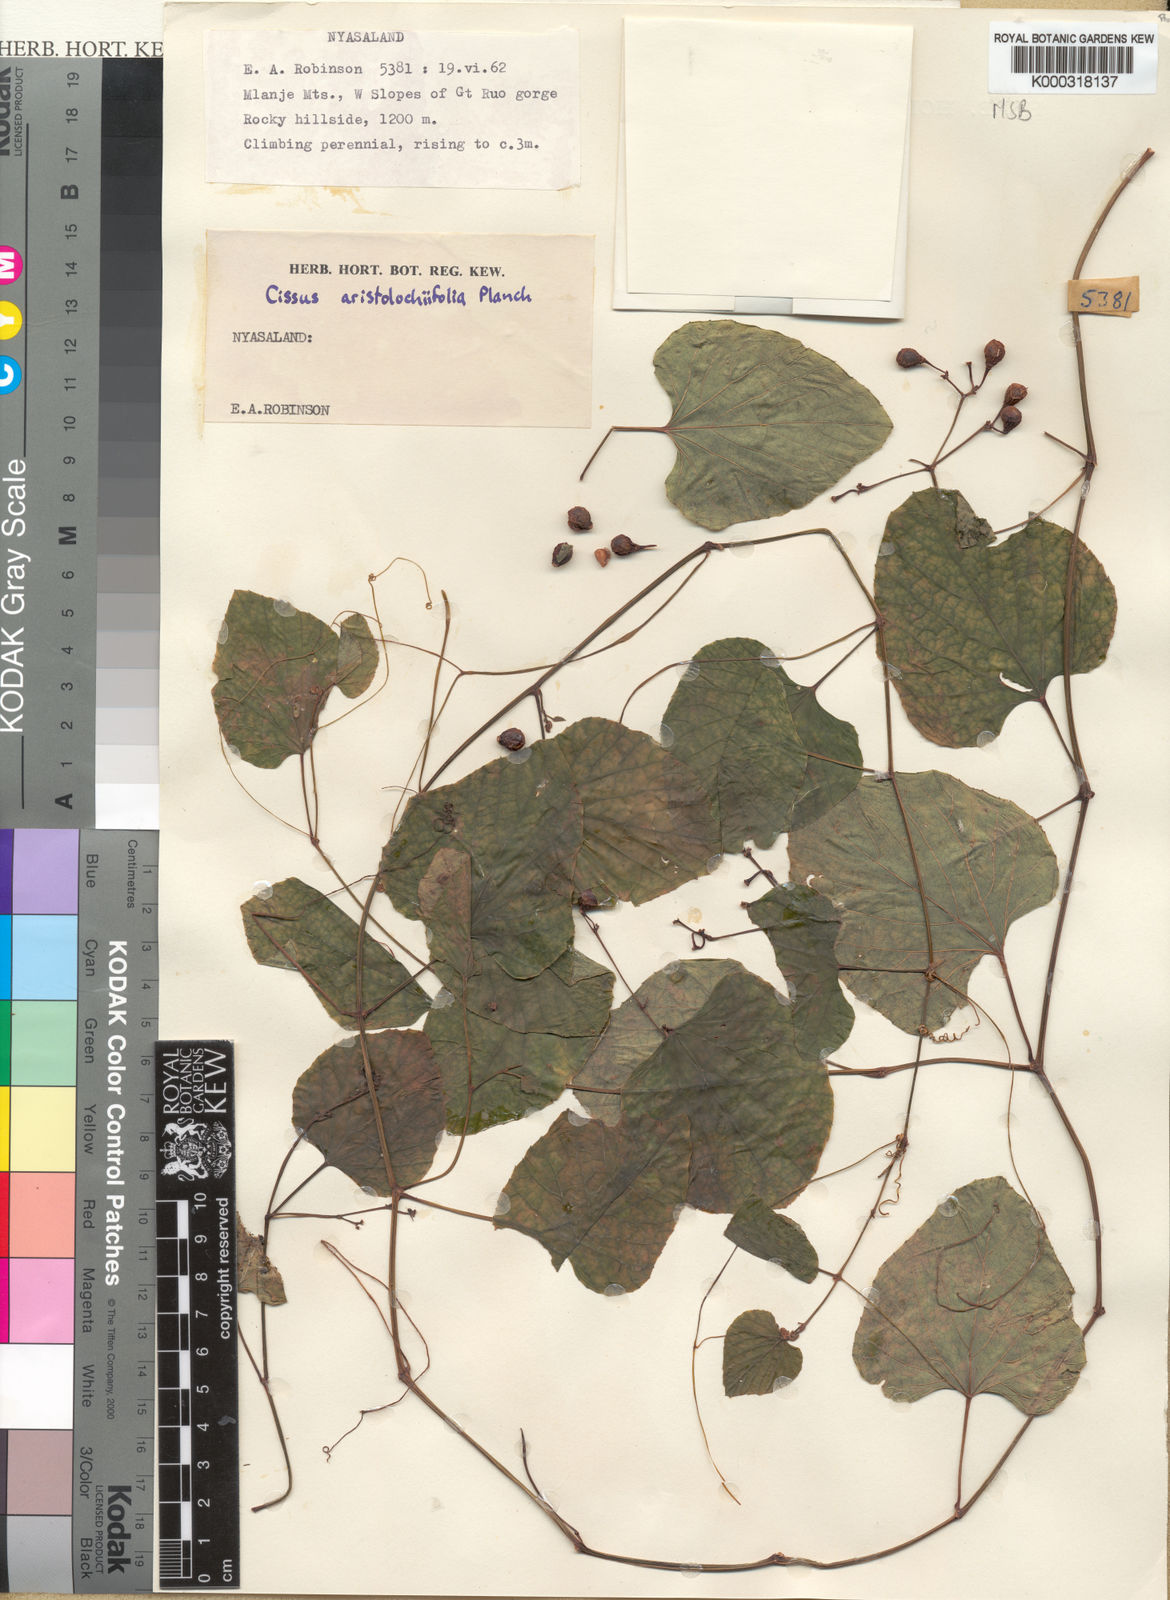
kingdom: Plantae
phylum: Tracheophyta
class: Magnoliopsida
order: Vitales
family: Vitaceae
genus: Cissus
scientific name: Cissus aristolochiifolia
